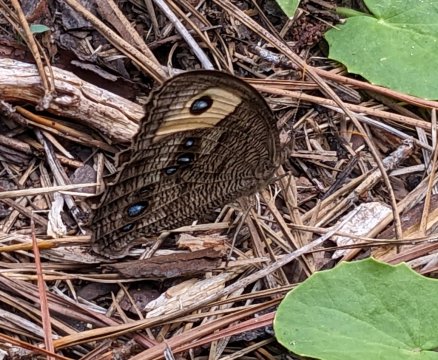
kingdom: Animalia
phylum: Arthropoda
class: Insecta
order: Lepidoptera
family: Nymphalidae
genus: Cercyonis
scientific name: Cercyonis pegala
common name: Common Wood-Nymph
